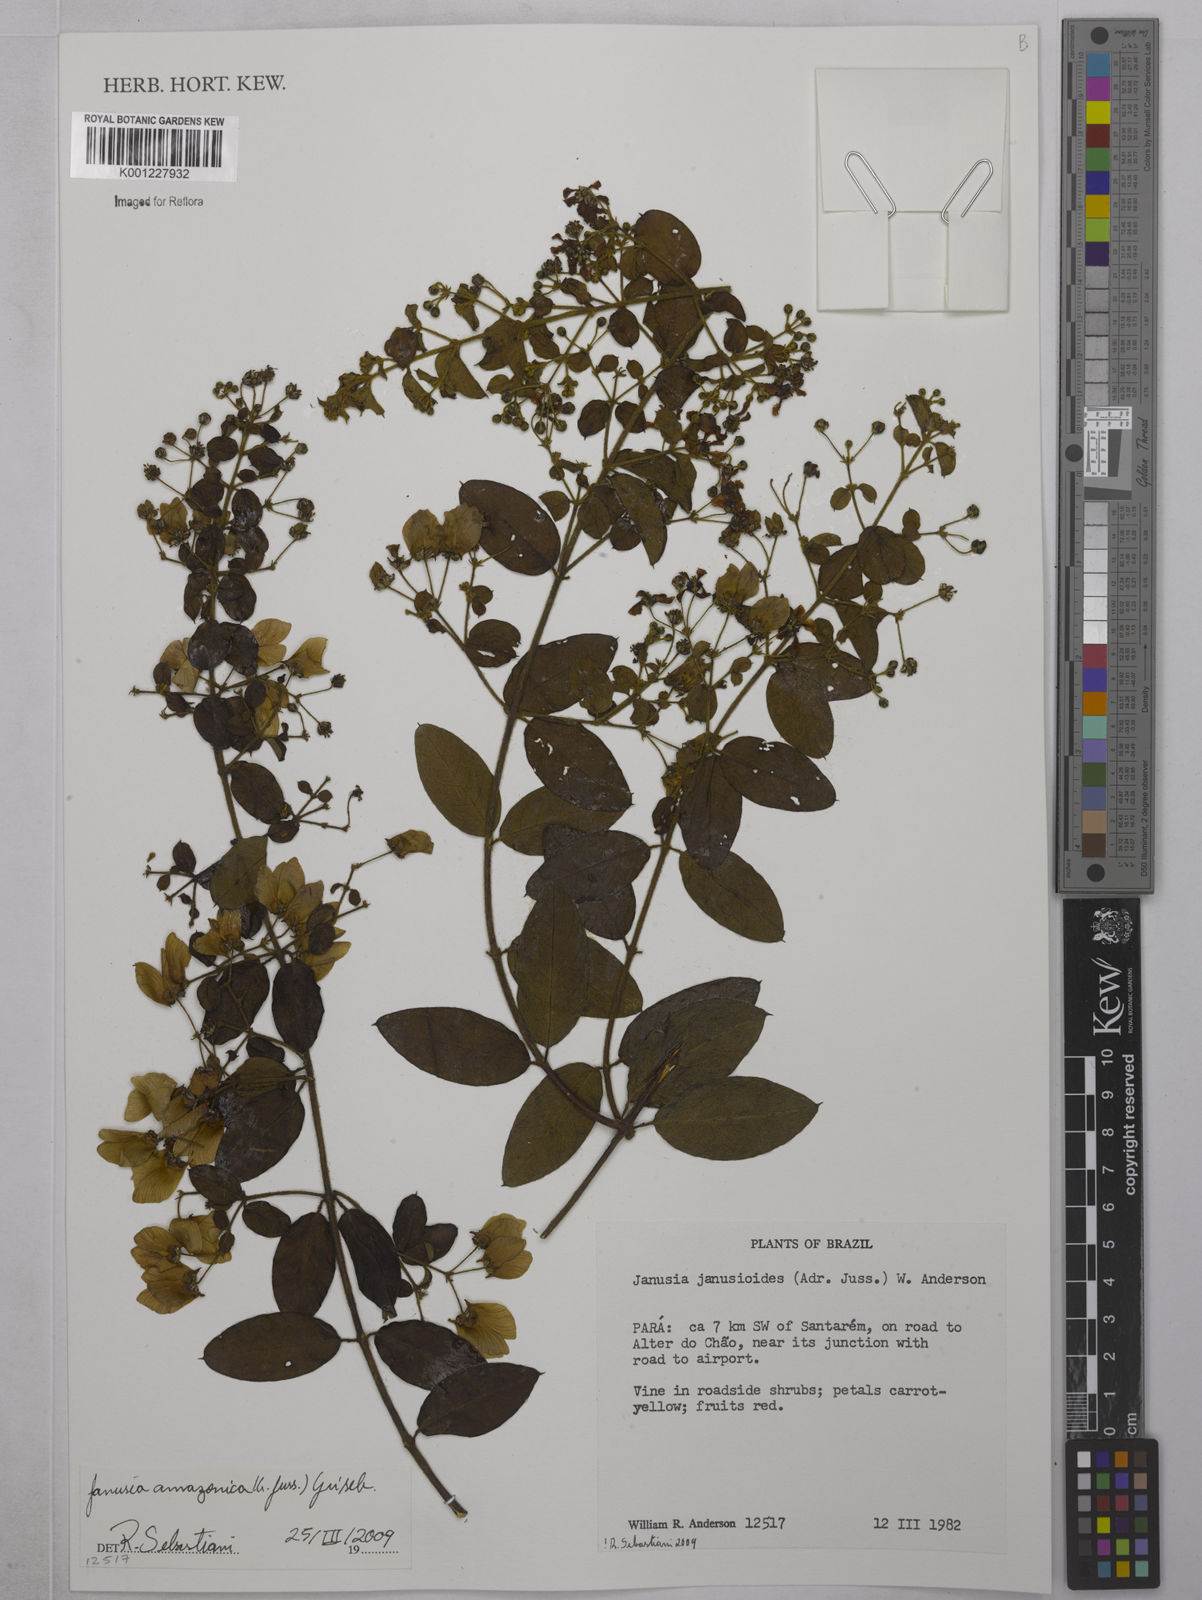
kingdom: Plantae
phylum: Tracheophyta
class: Magnoliopsida
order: Malpighiales
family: Malpighiaceae
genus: Janusia
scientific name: Janusia amazonica
